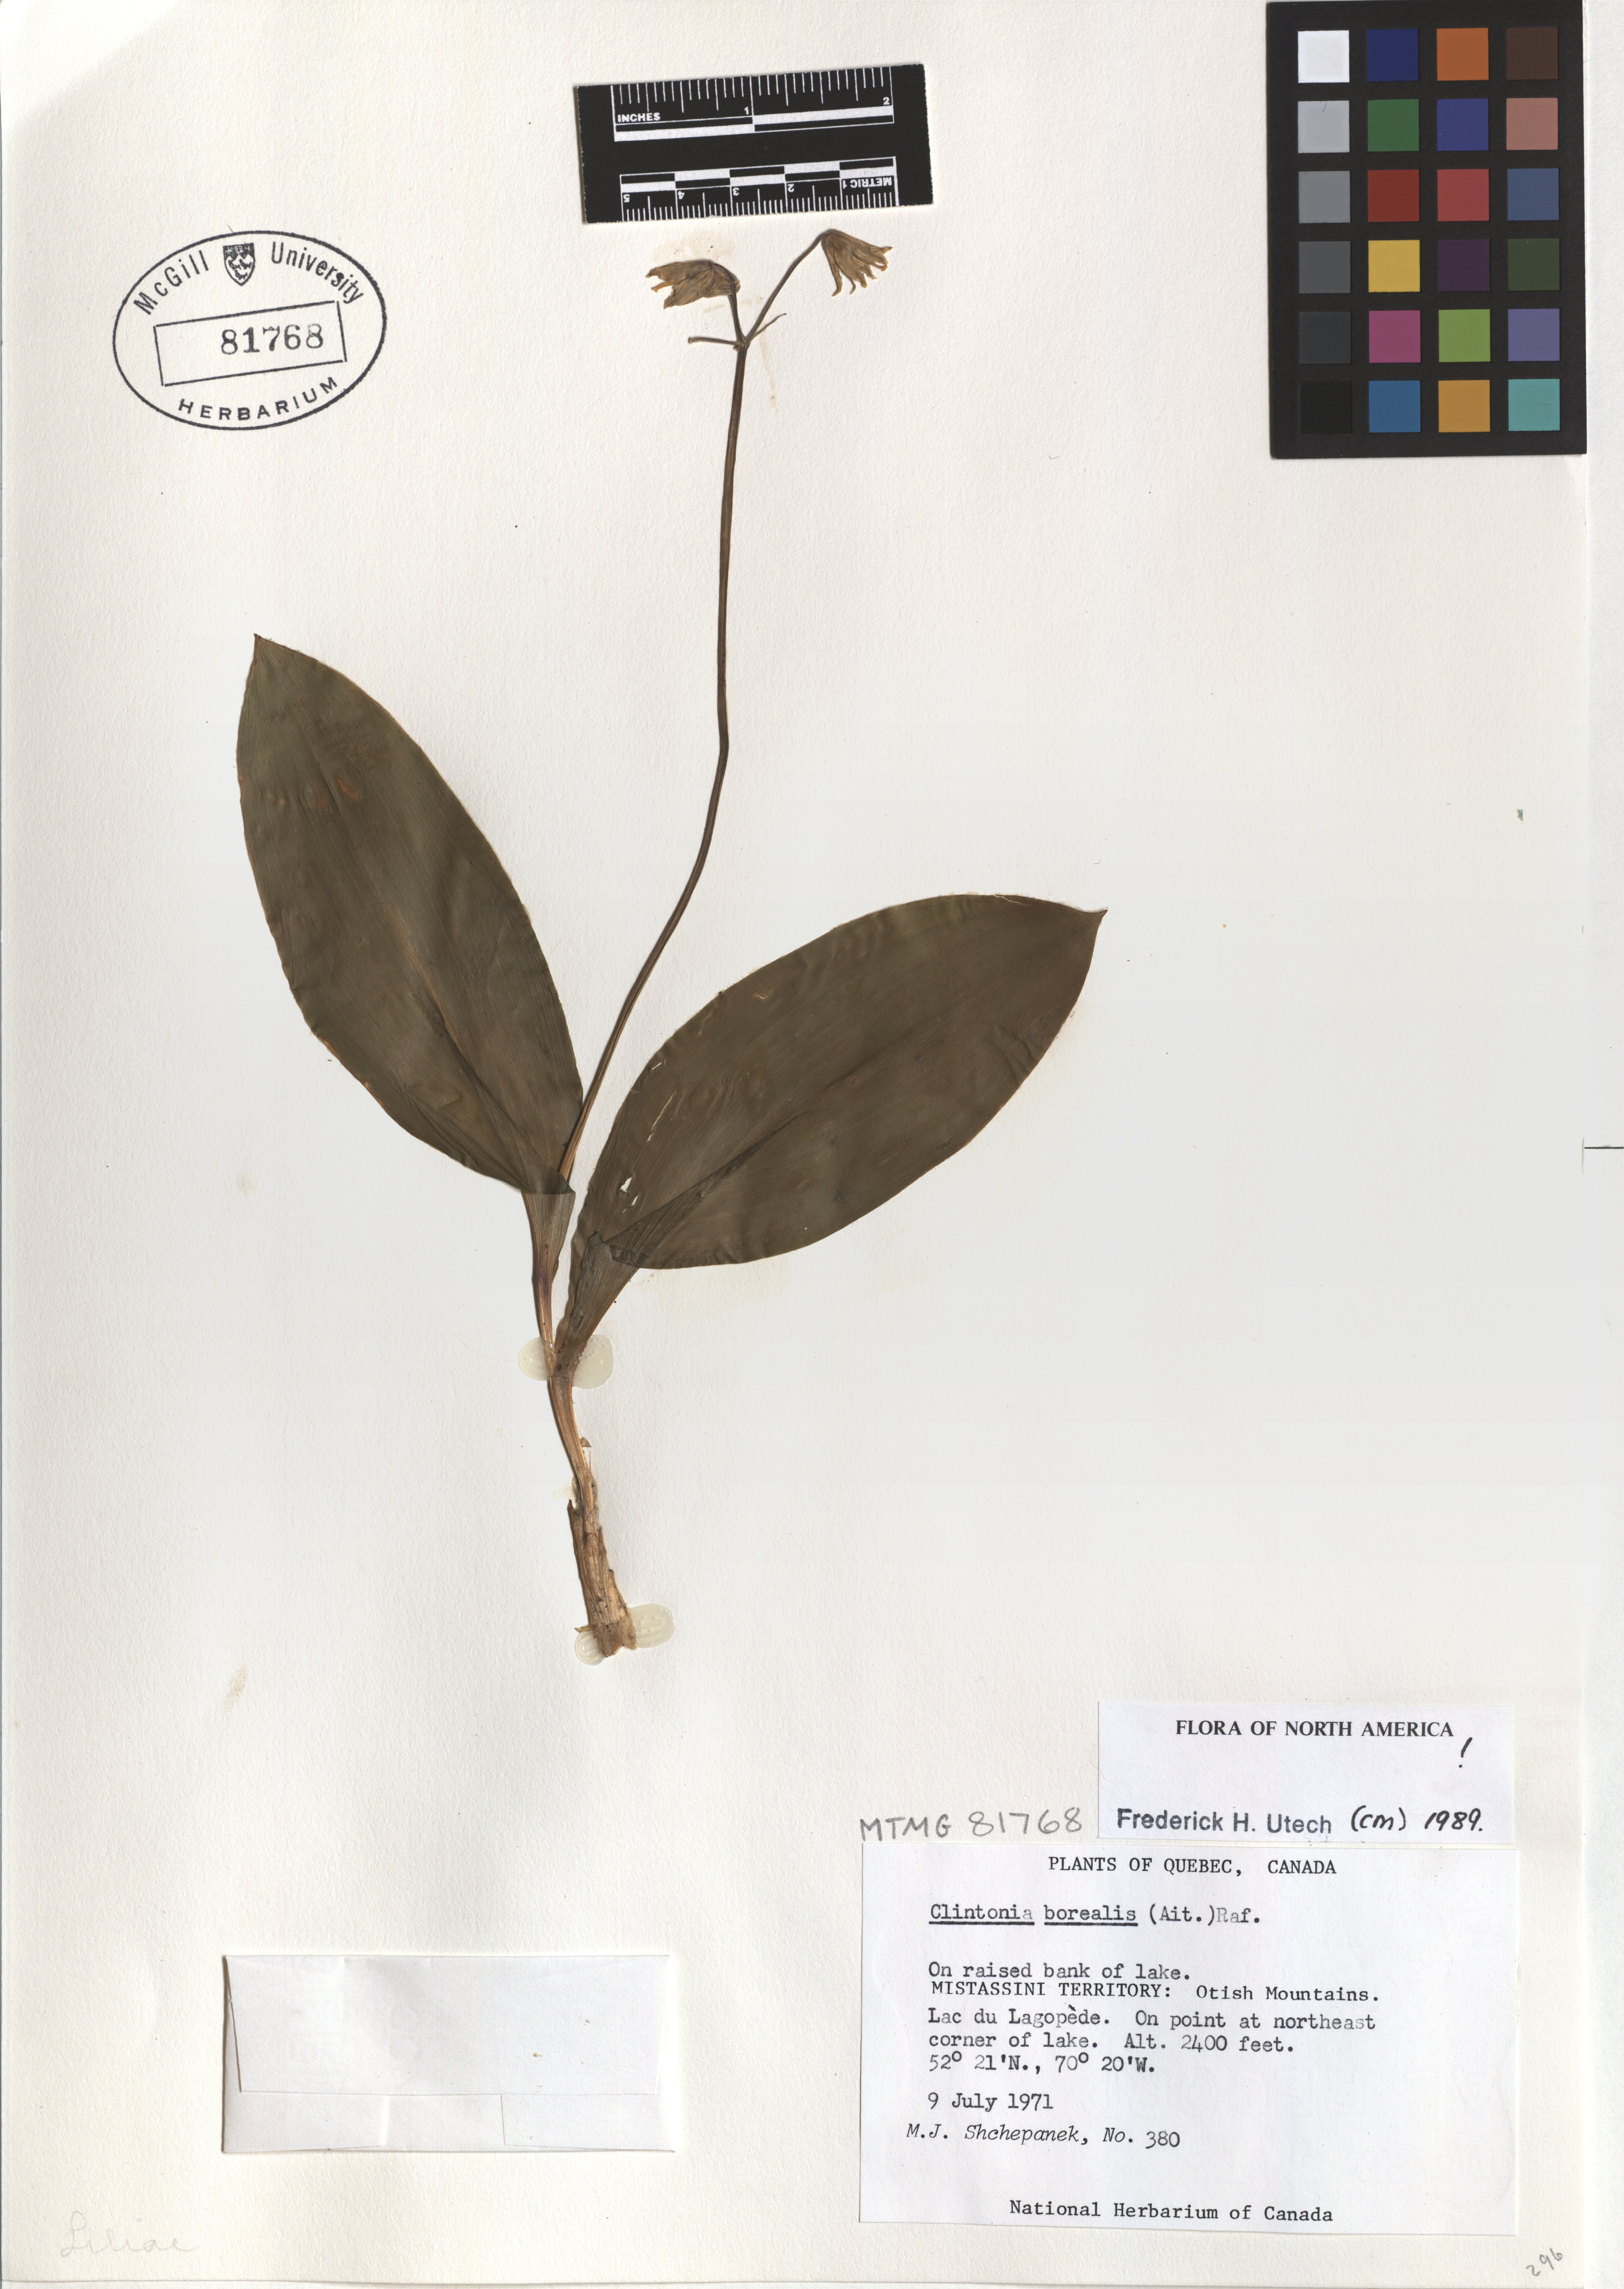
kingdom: Plantae
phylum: Tracheophyta
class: Liliopsida
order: Liliales
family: Liliaceae
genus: Clintonia
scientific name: Clintonia borealis
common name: Yellow clintonia
